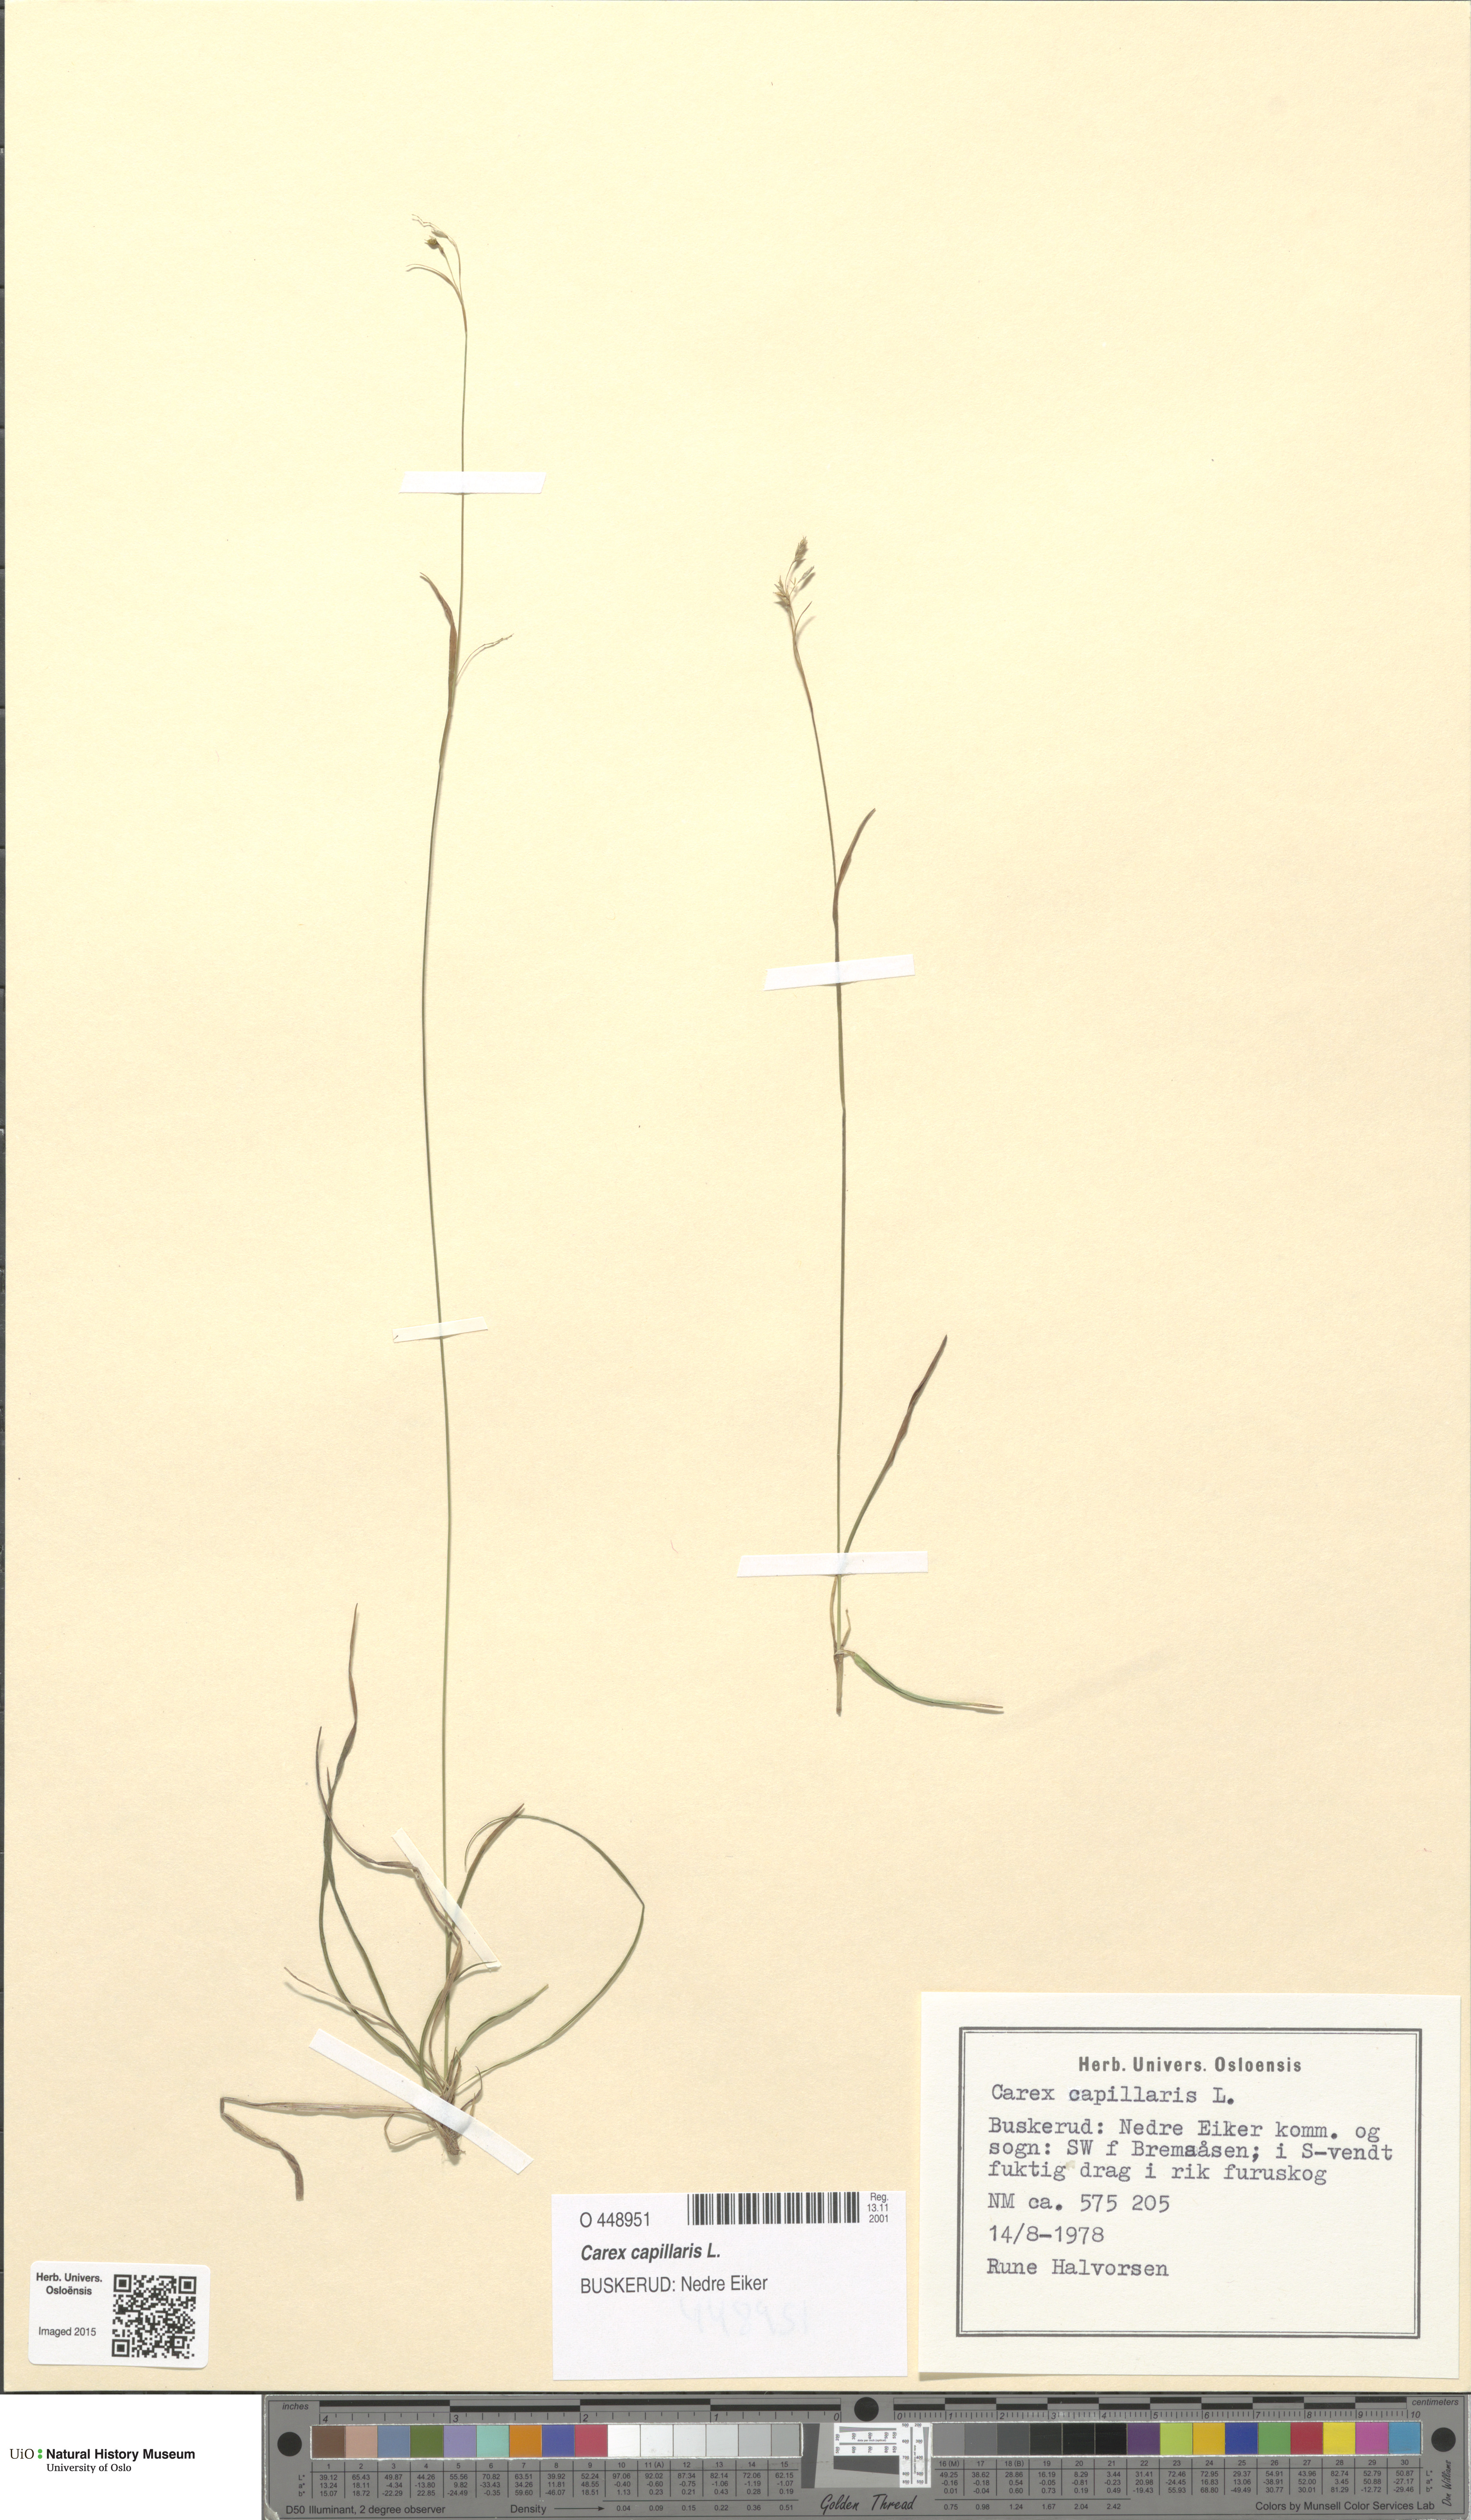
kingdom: Plantae
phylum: Tracheophyta
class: Liliopsida
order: Poales
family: Cyperaceae
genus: Carex
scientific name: Carex capillaris
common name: Hair sedge
